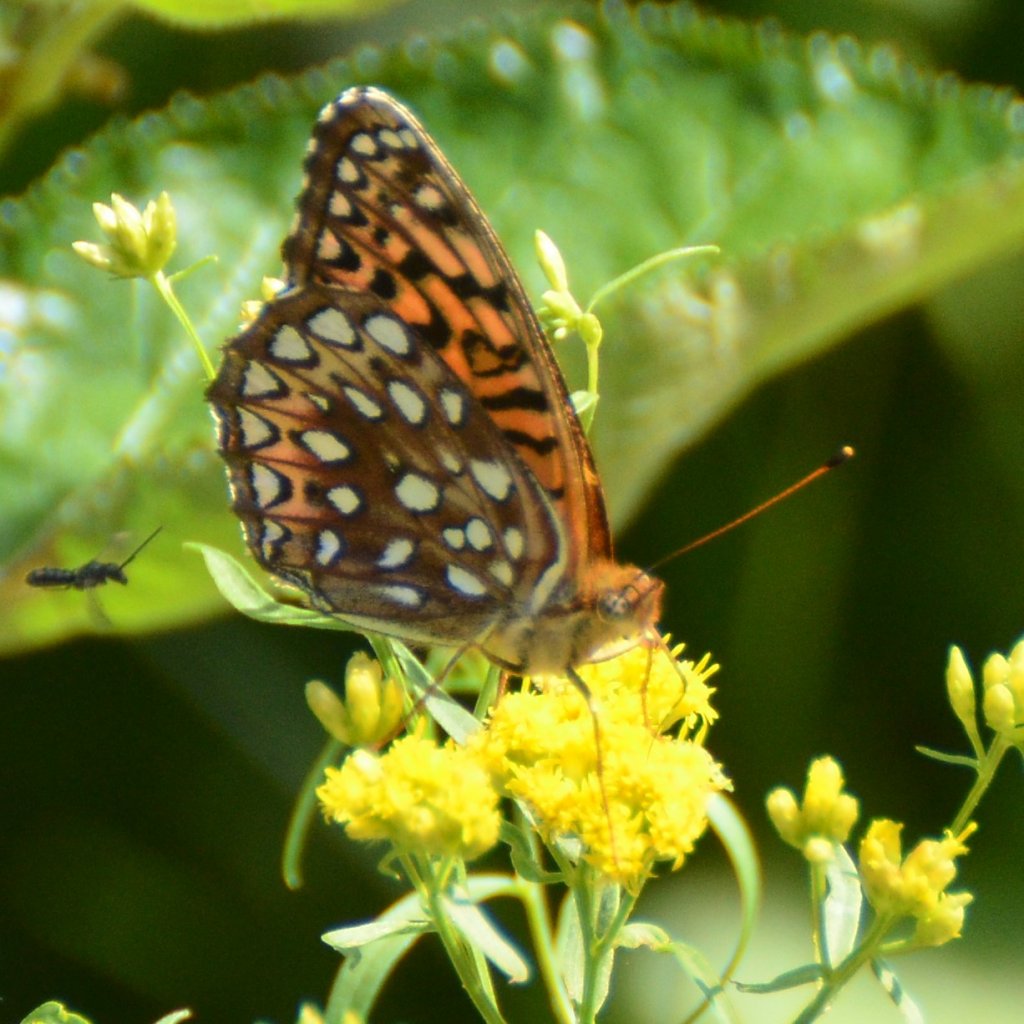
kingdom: Animalia
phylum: Arthropoda
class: Insecta
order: Lepidoptera
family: Nymphalidae
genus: Speyeria
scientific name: Speyeria atlantis
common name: Atlantis Fritillary
